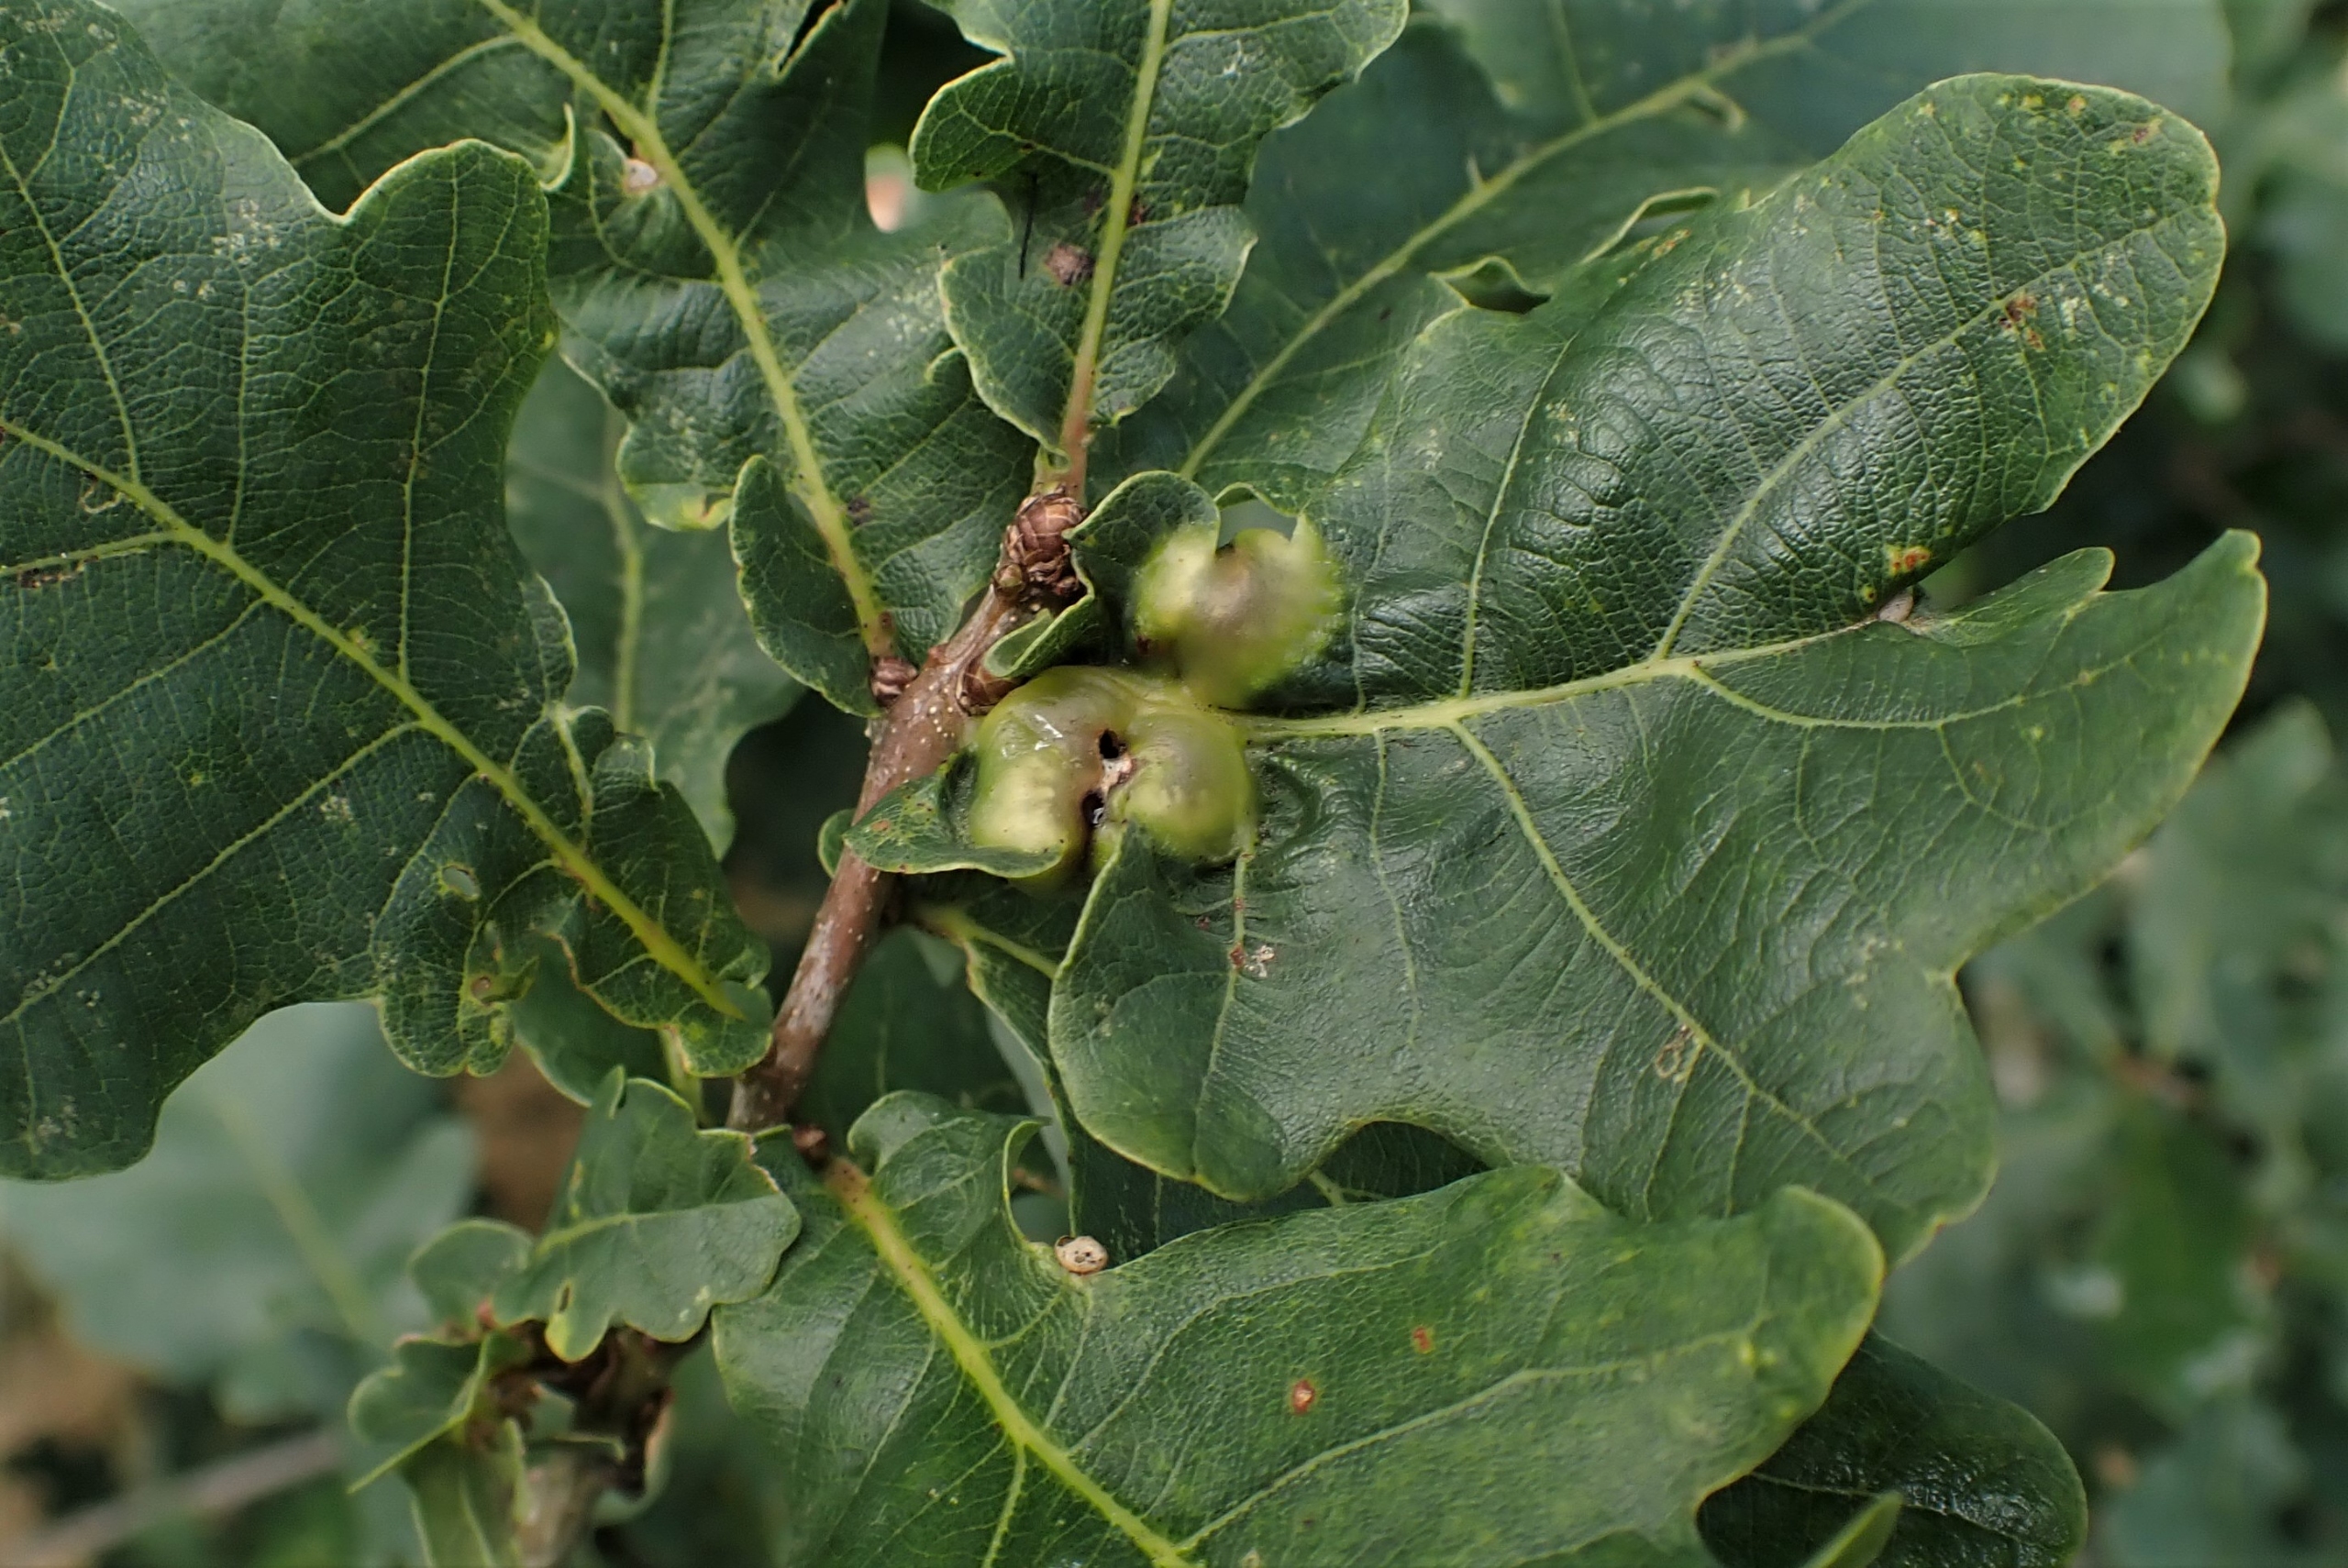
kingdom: Animalia
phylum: Arthropoda
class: Insecta
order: Hymenoptera
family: Cynipidae
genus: Andricus
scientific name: Andricus curvator
